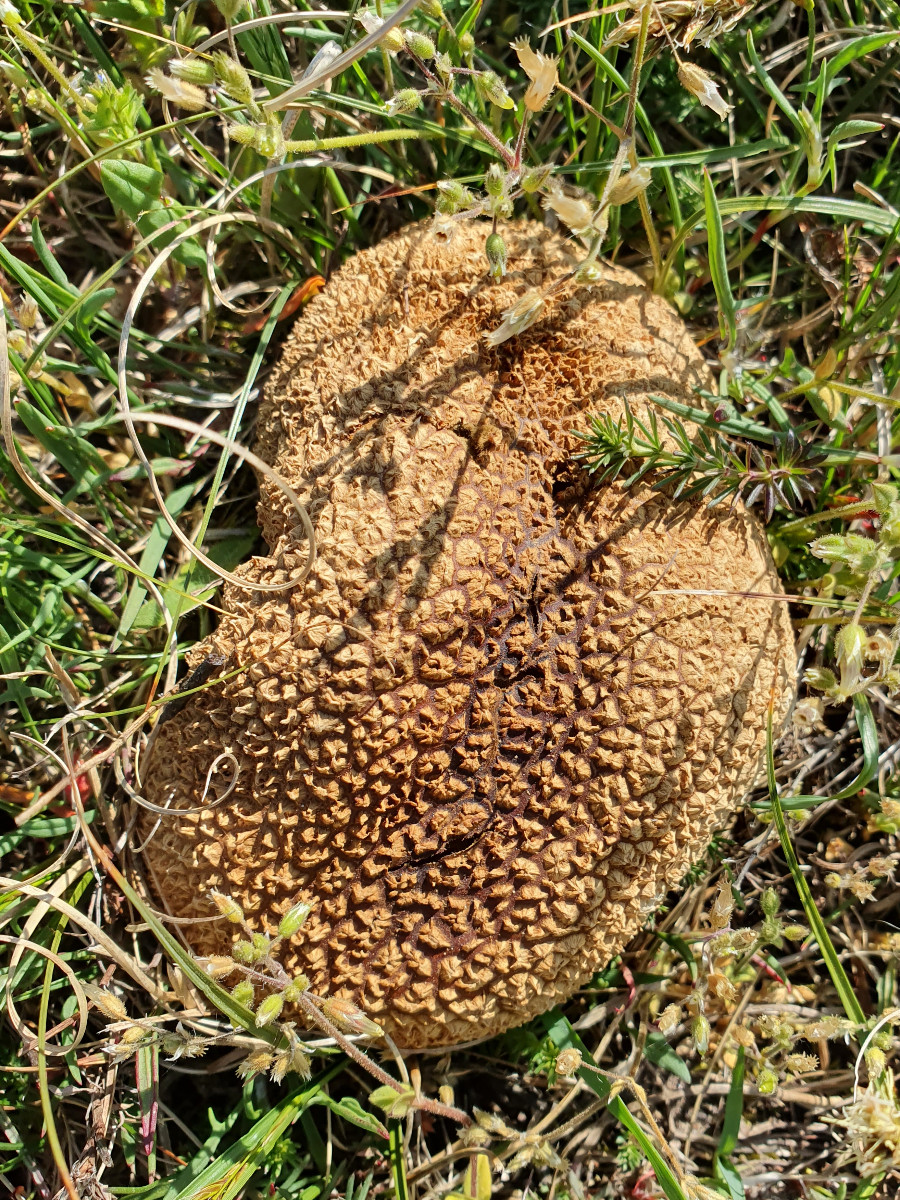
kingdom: Fungi
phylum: Basidiomycota
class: Agaricomycetes
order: Agaricales
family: Lycoperdaceae
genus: Bovistella
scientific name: Bovistella utriformis
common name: skællet støvbold
